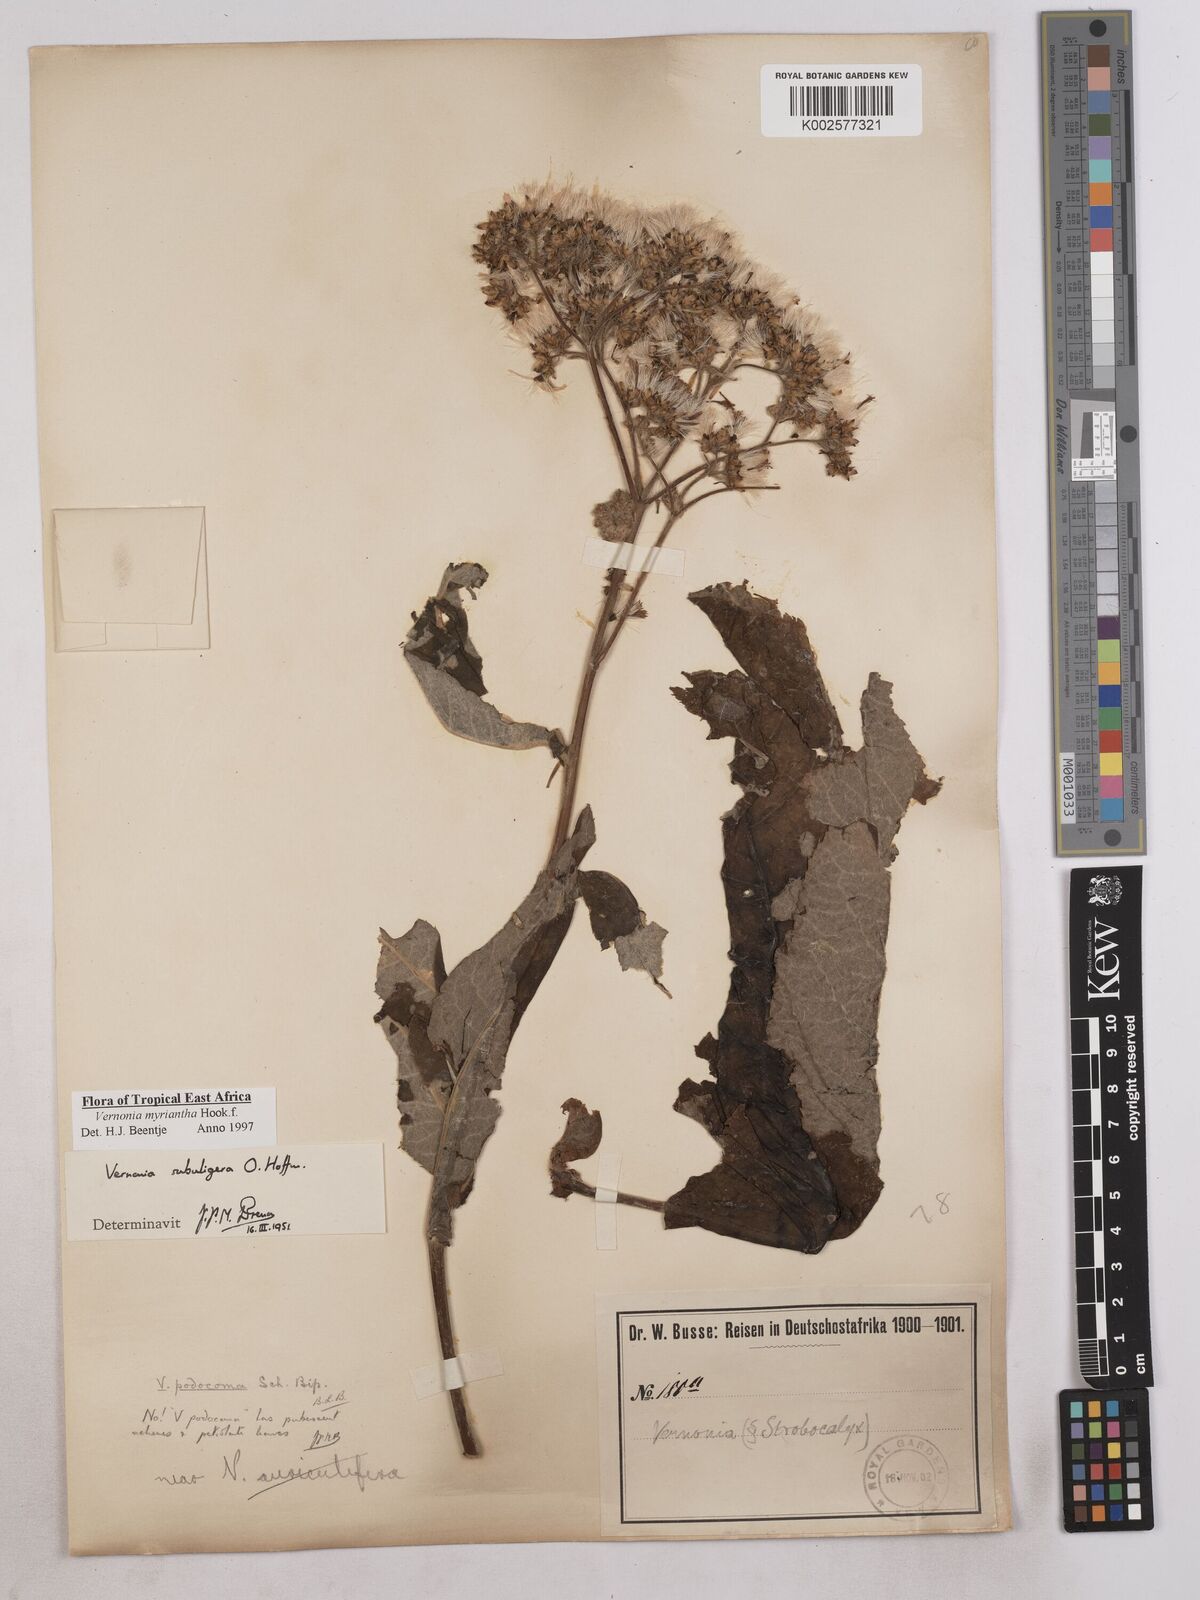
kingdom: Plantae
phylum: Tracheophyta
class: Magnoliopsida
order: Asterales
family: Asteraceae
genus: Gymnanthemum
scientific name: Gymnanthemum myrianthum
